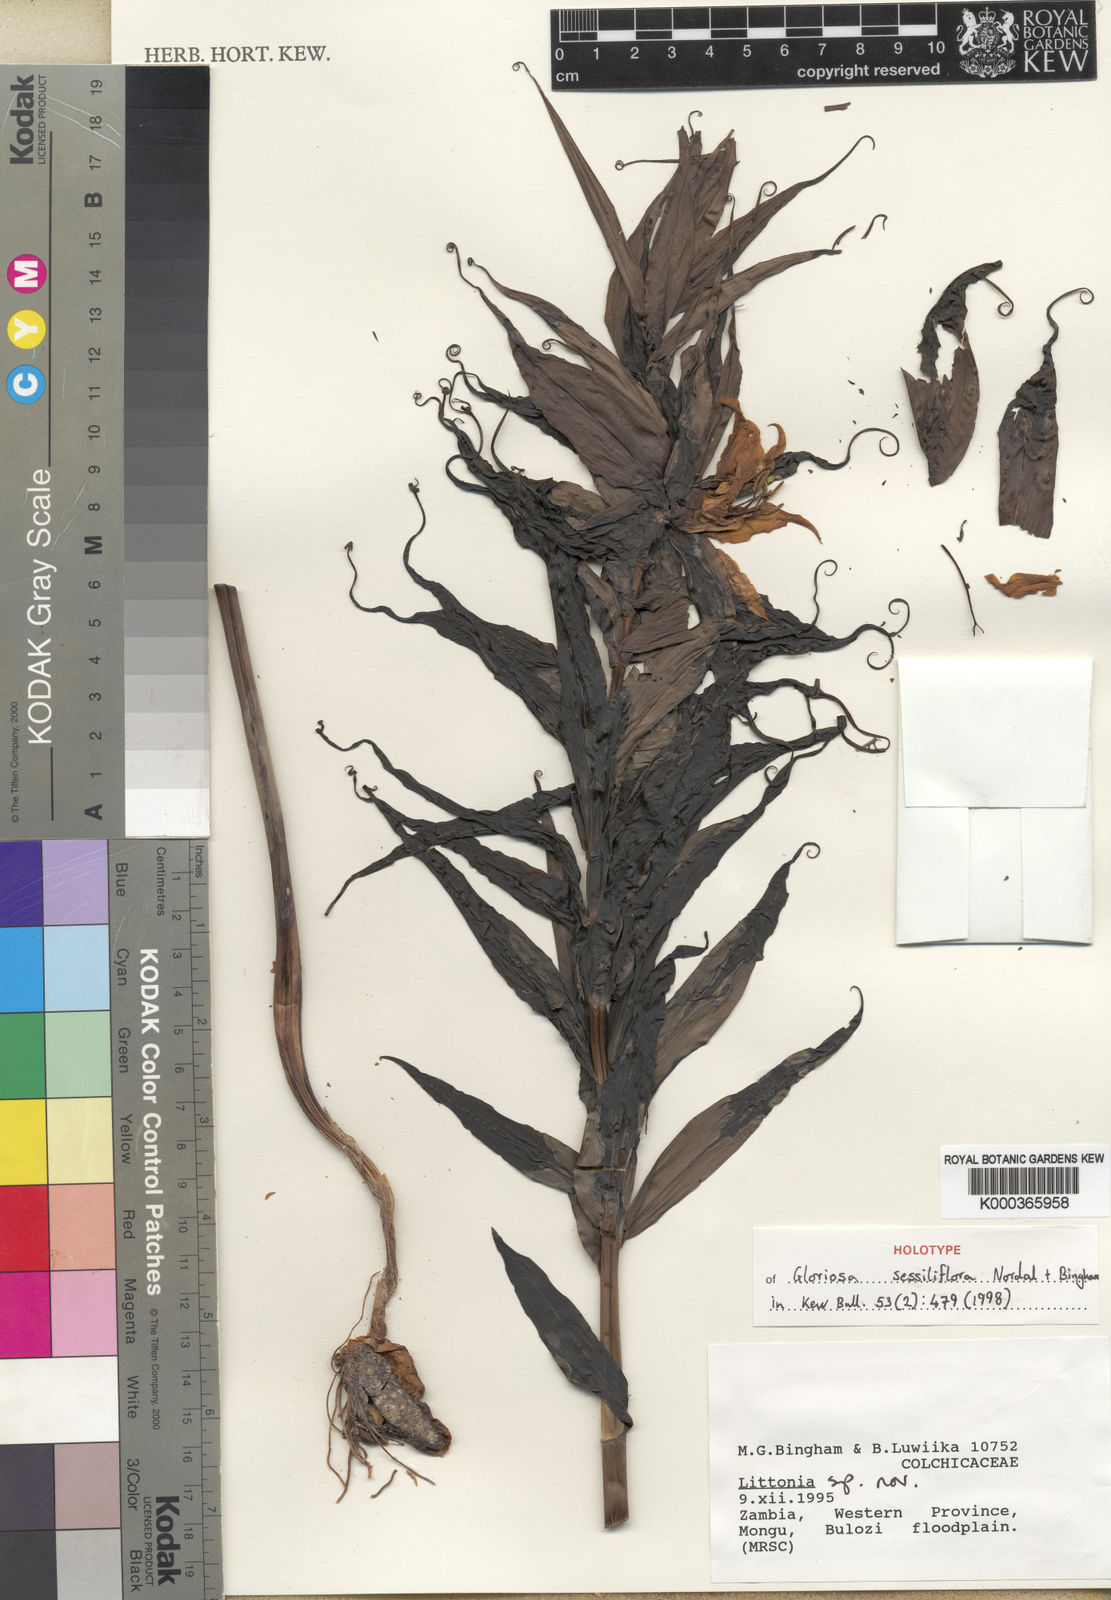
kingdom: Plantae
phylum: Tracheophyta
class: Liliopsida
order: Liliales
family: Colchicaceae
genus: Gloriosa
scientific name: Gloriosa sessiliflora
